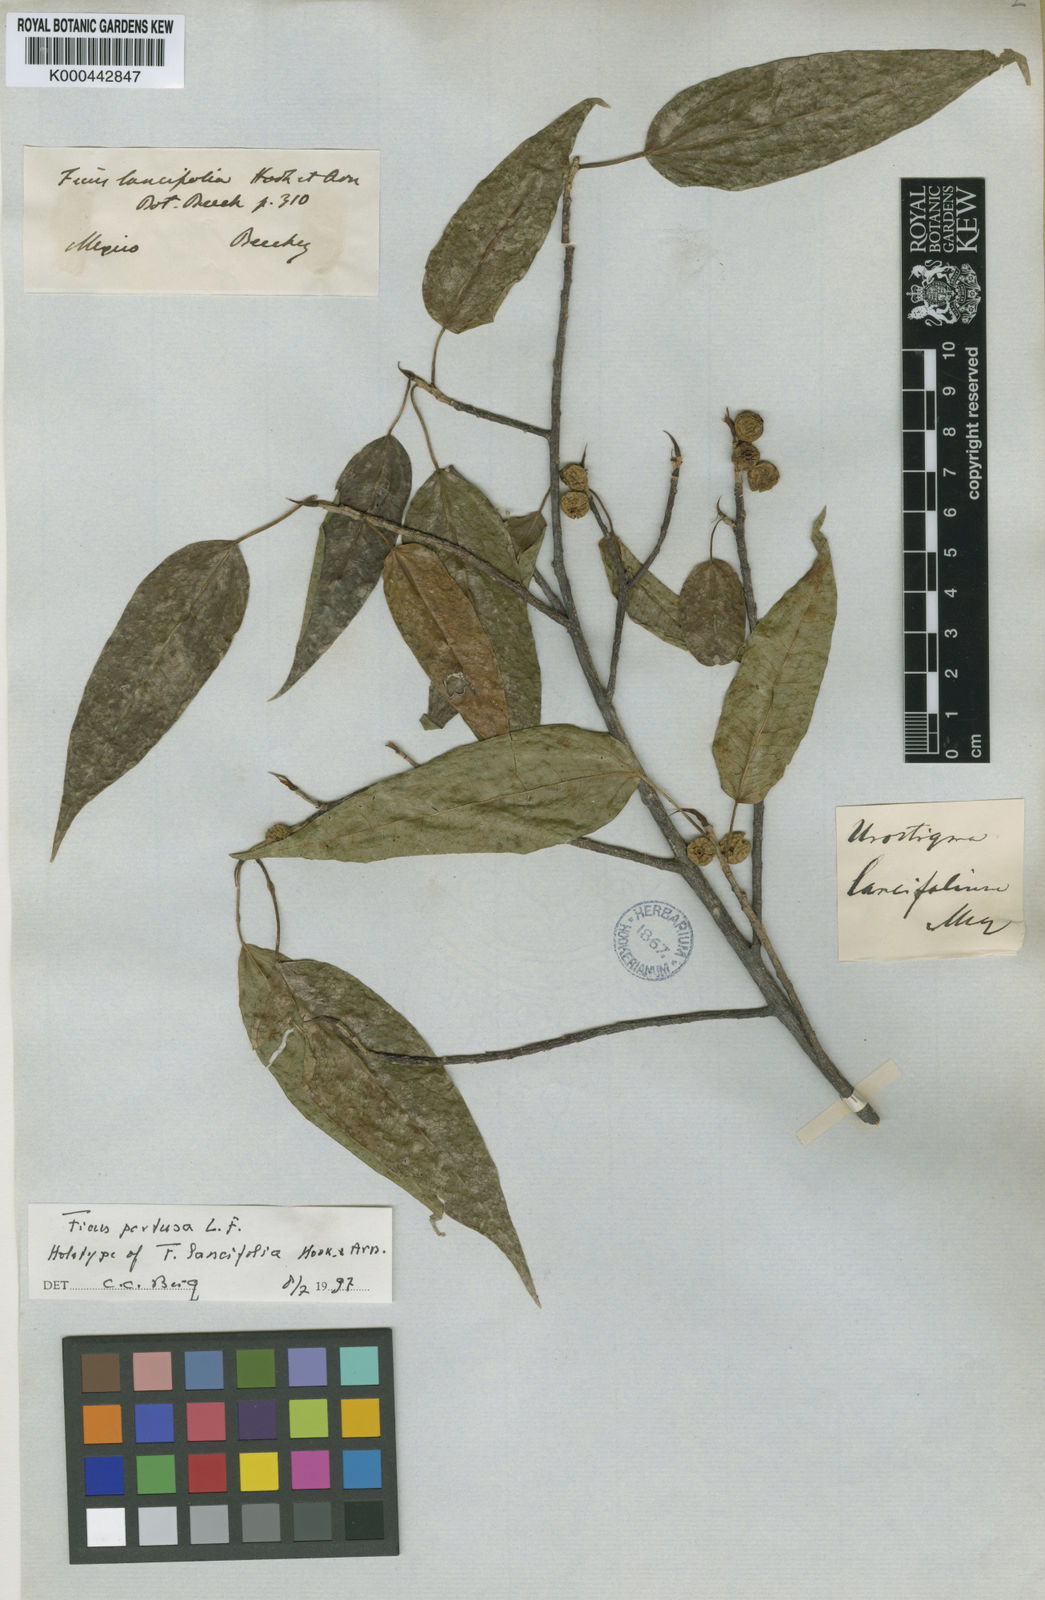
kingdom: Plantae
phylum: Tracheophyta
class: Magnoliopsida
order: Rosales
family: Moraceae
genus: Ficus
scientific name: Ficus padifolia
